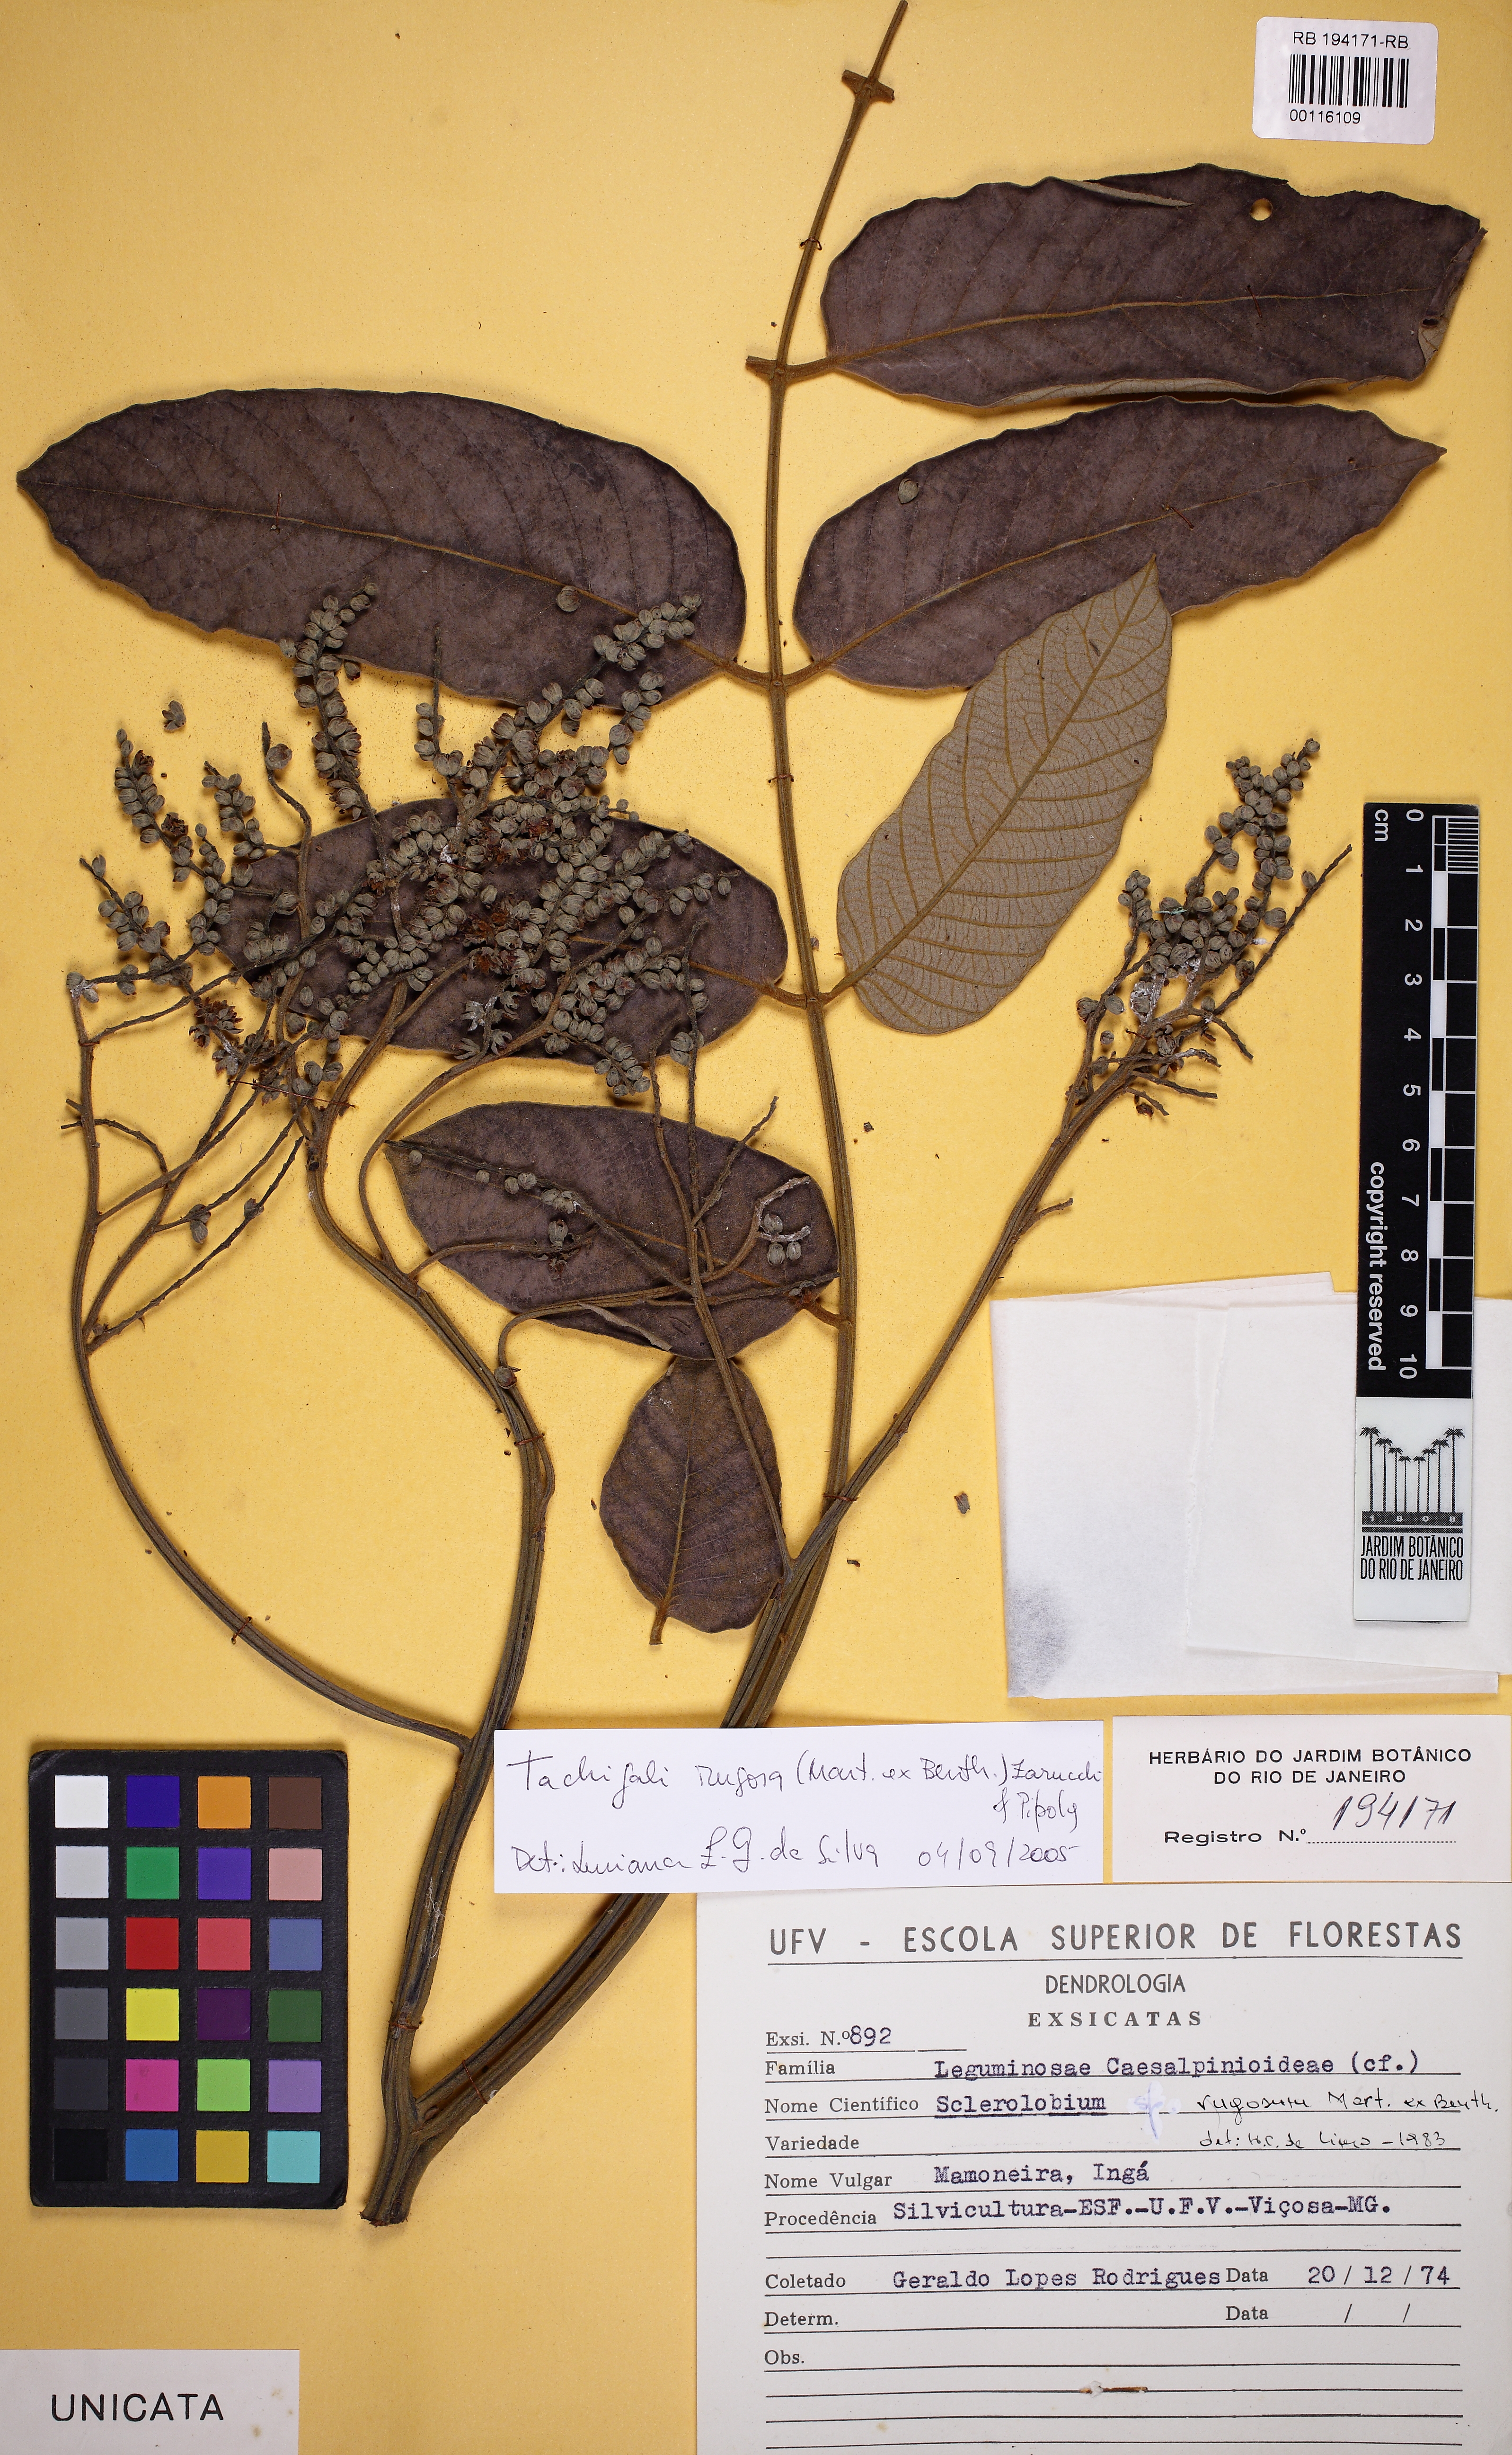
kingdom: Plantae
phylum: Tracheophyta
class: Magnoliopsida
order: Fabales
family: Fabaceae
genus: Tachigali
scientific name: Tachigali rugosa
